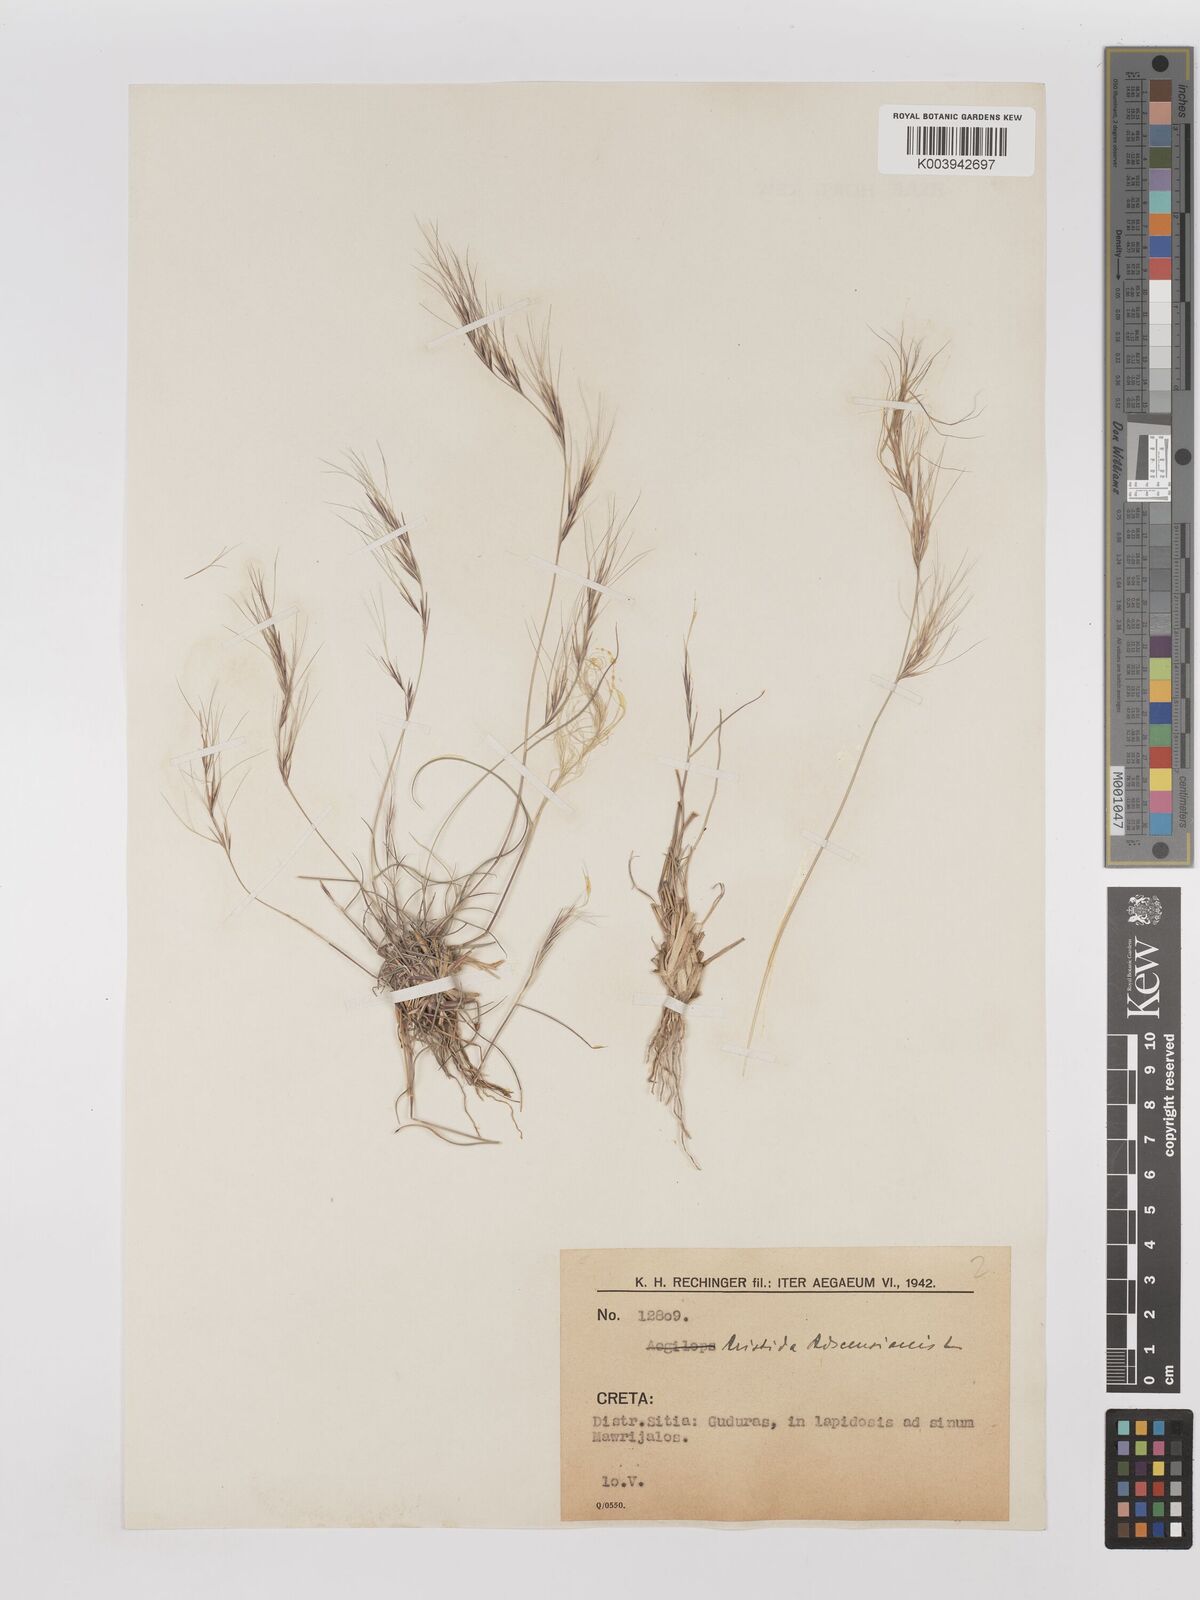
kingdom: Plantae
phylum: Tracheophyta
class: Liliopsida
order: Poales
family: Poaceae
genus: Aristida
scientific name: Aristida adscensionis
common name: Sixweeks threeawn
